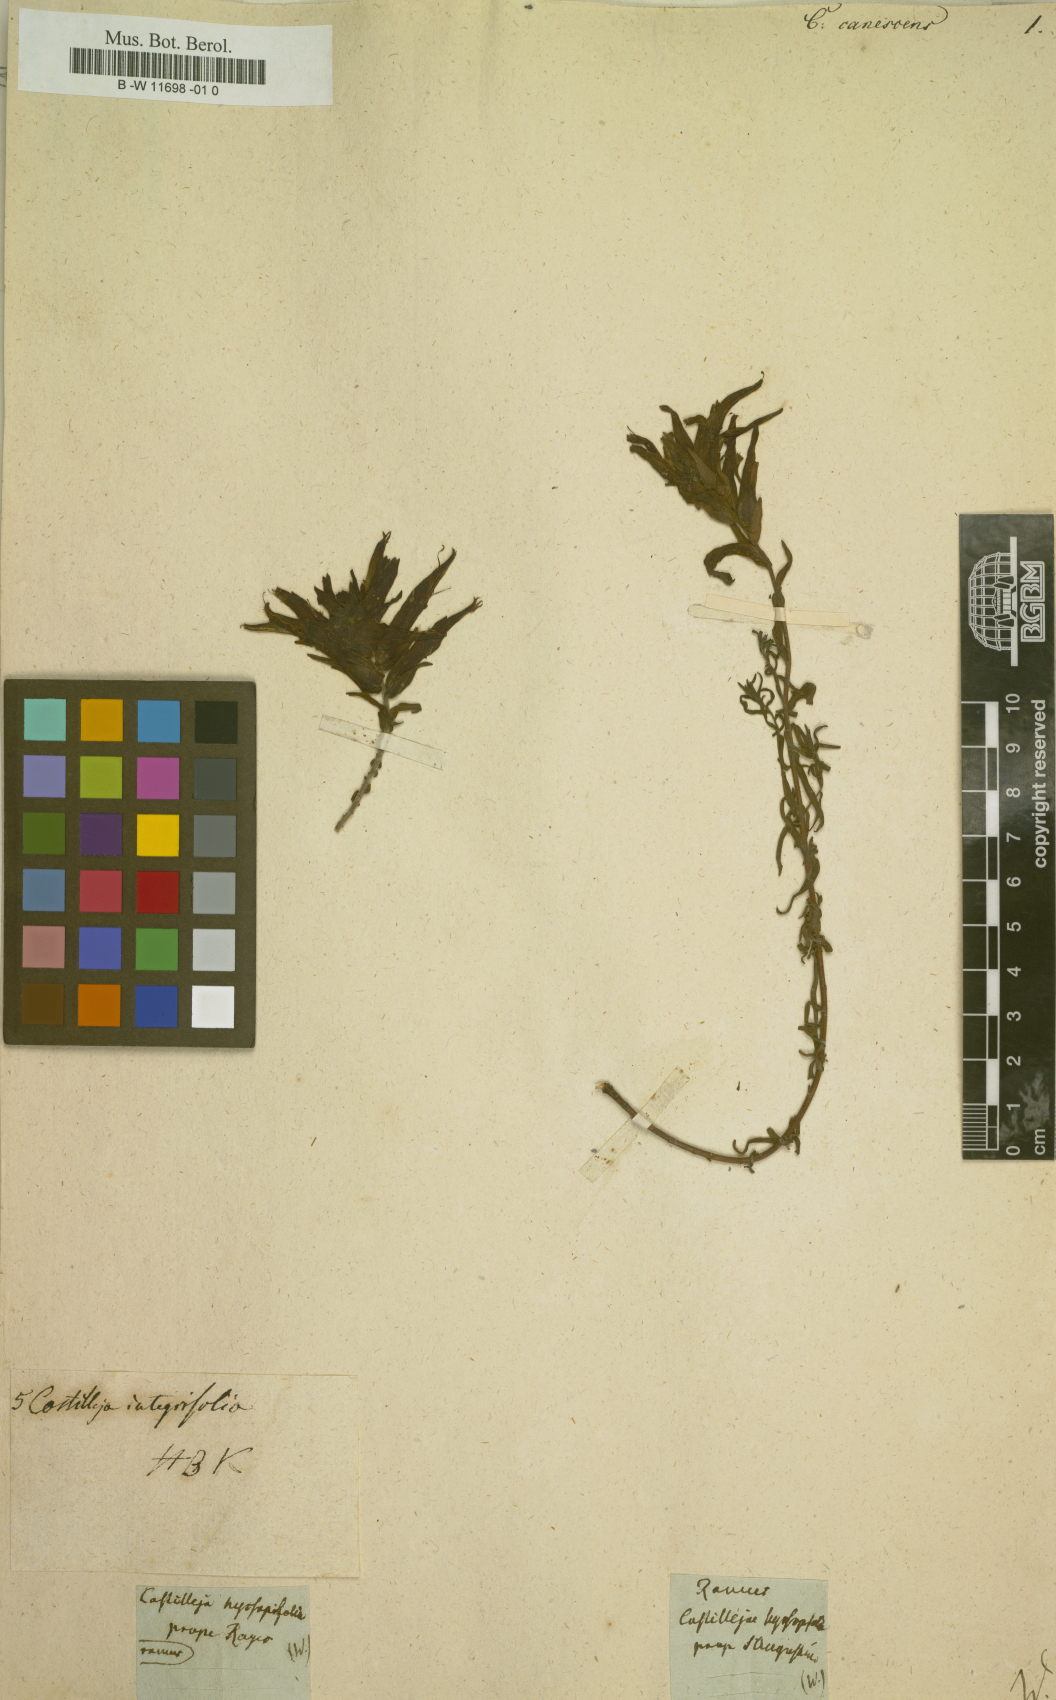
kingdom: Plantae
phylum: Tracheophyta
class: Magnoliopsida
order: Lamiales
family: Orobanchaceae
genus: Castilleja
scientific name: Castilleja tenuiflora
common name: Santa catalina indian paintbrush
